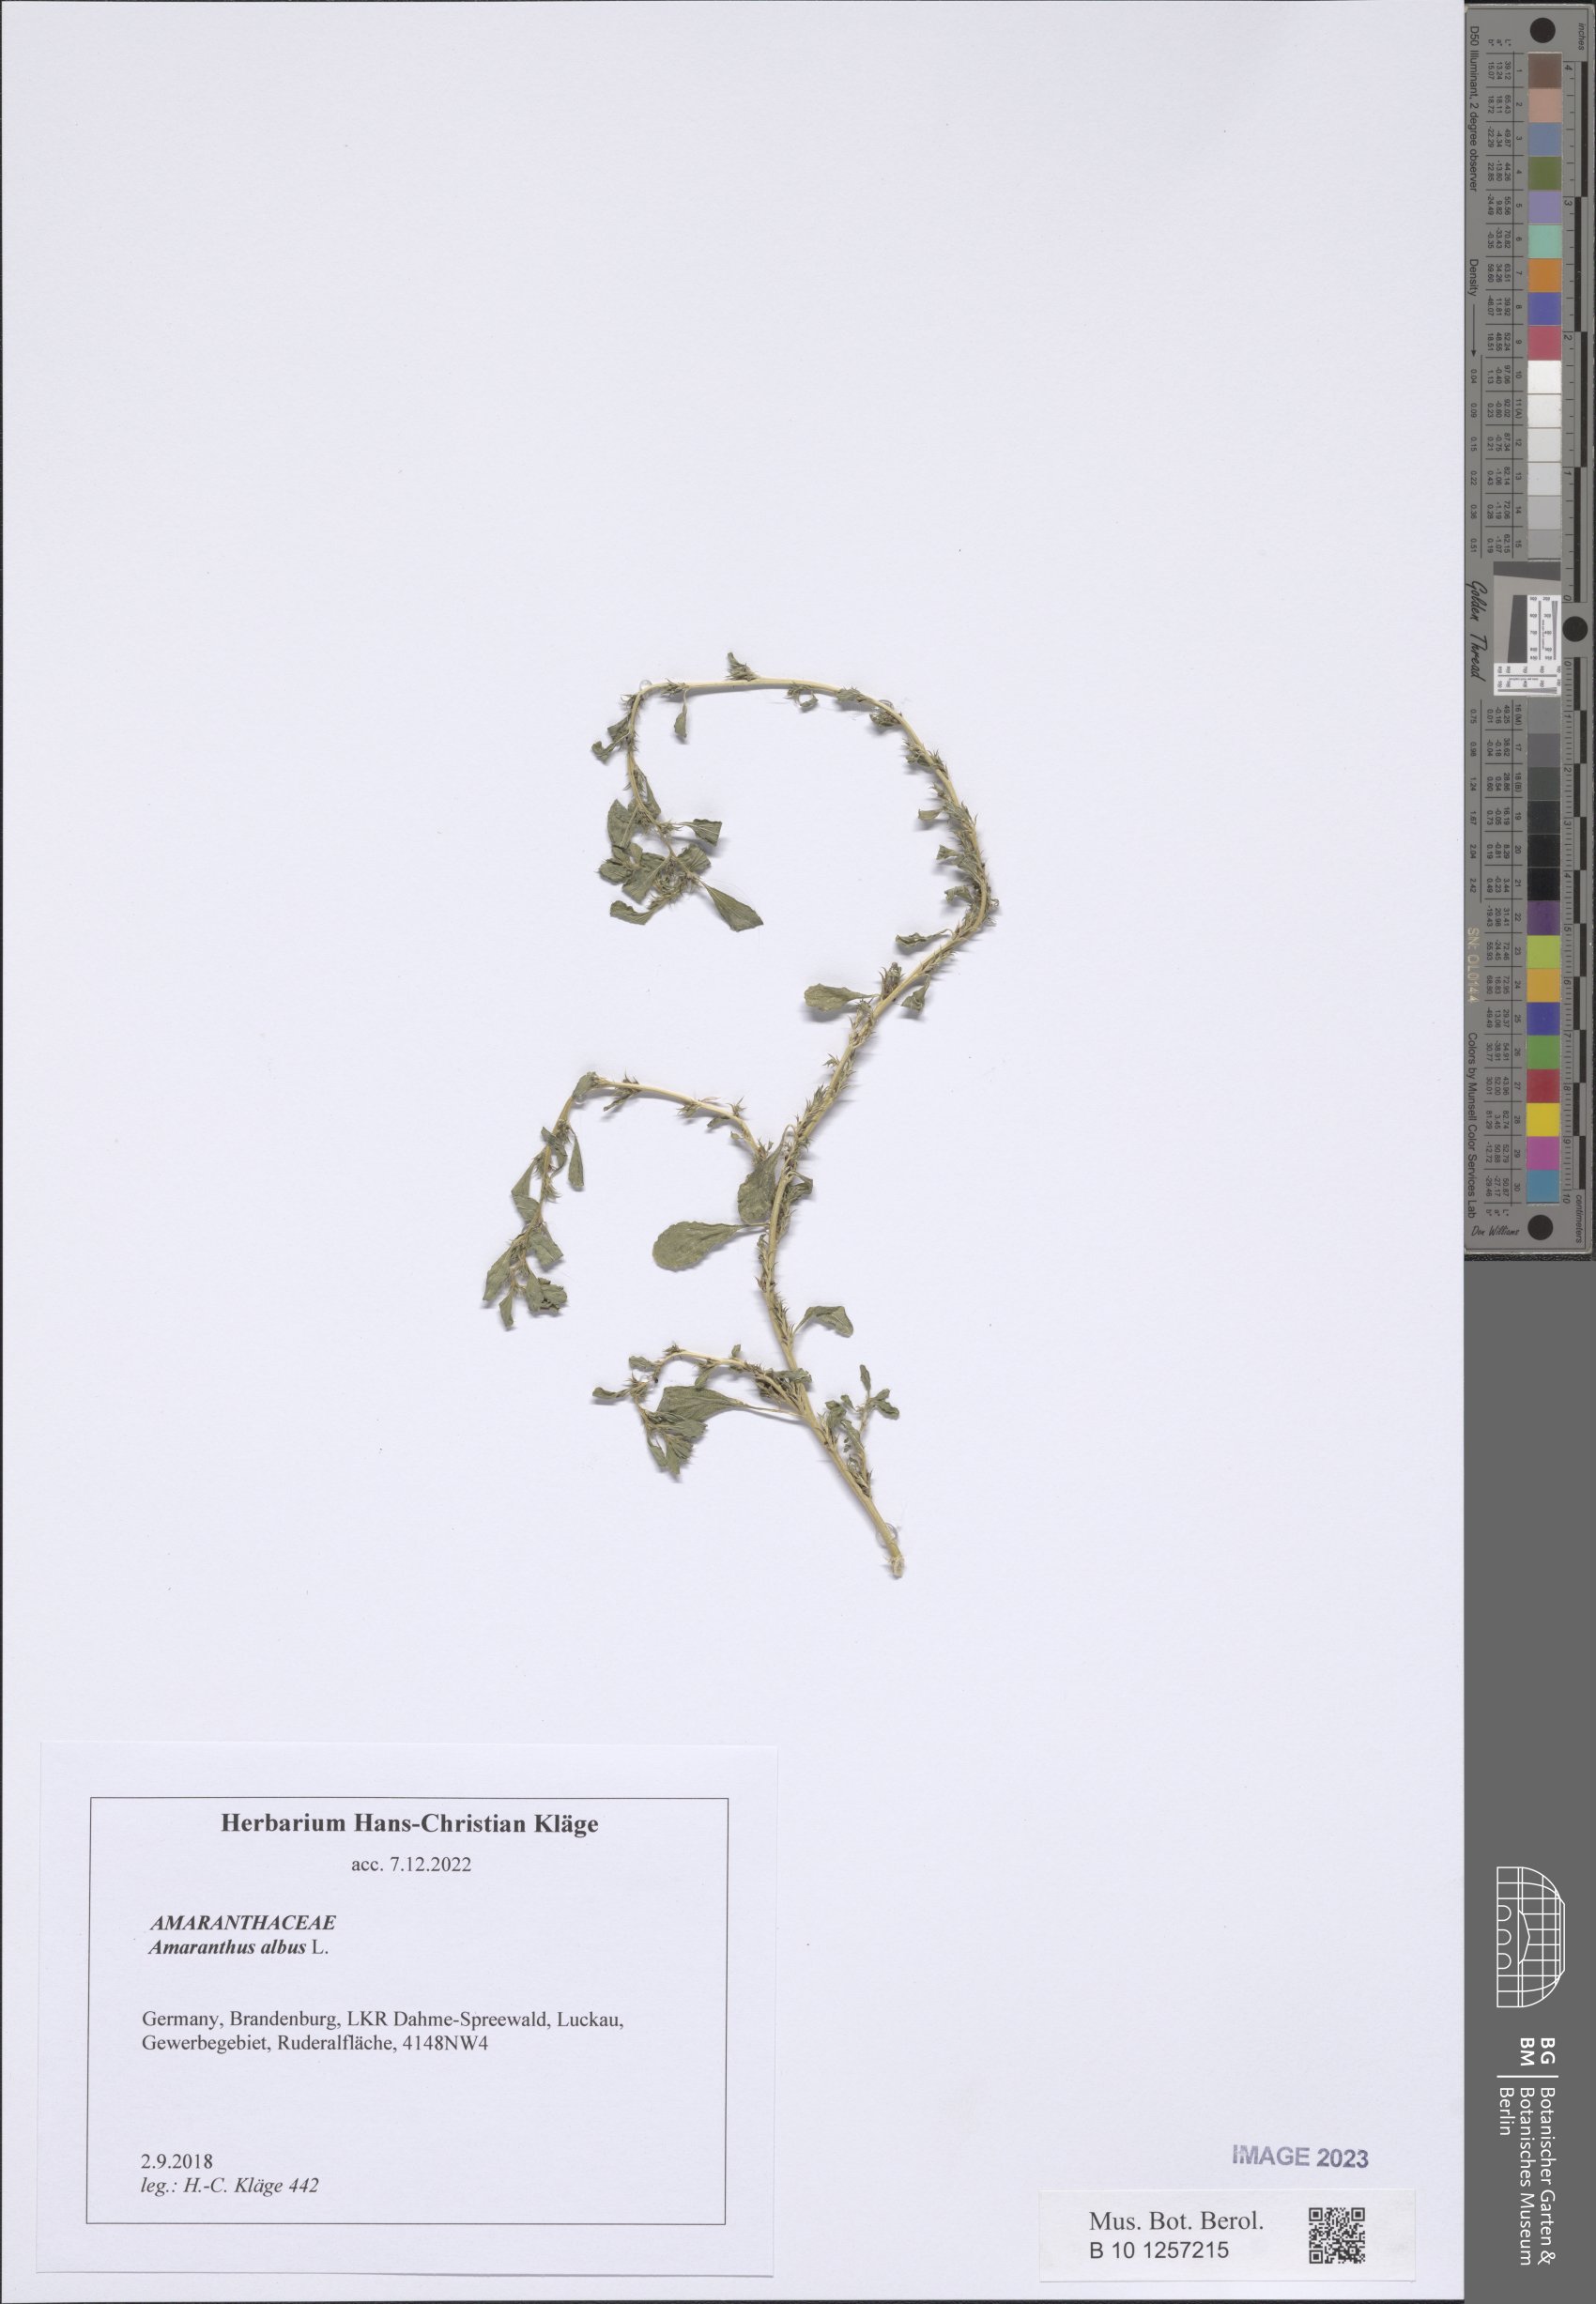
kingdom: Plantae
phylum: Tracheophyta
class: Magnoliopsida
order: Caryophyllales
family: Amaranthaceae
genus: Amaranthus
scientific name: Amaranthus albus
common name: White pigweed
